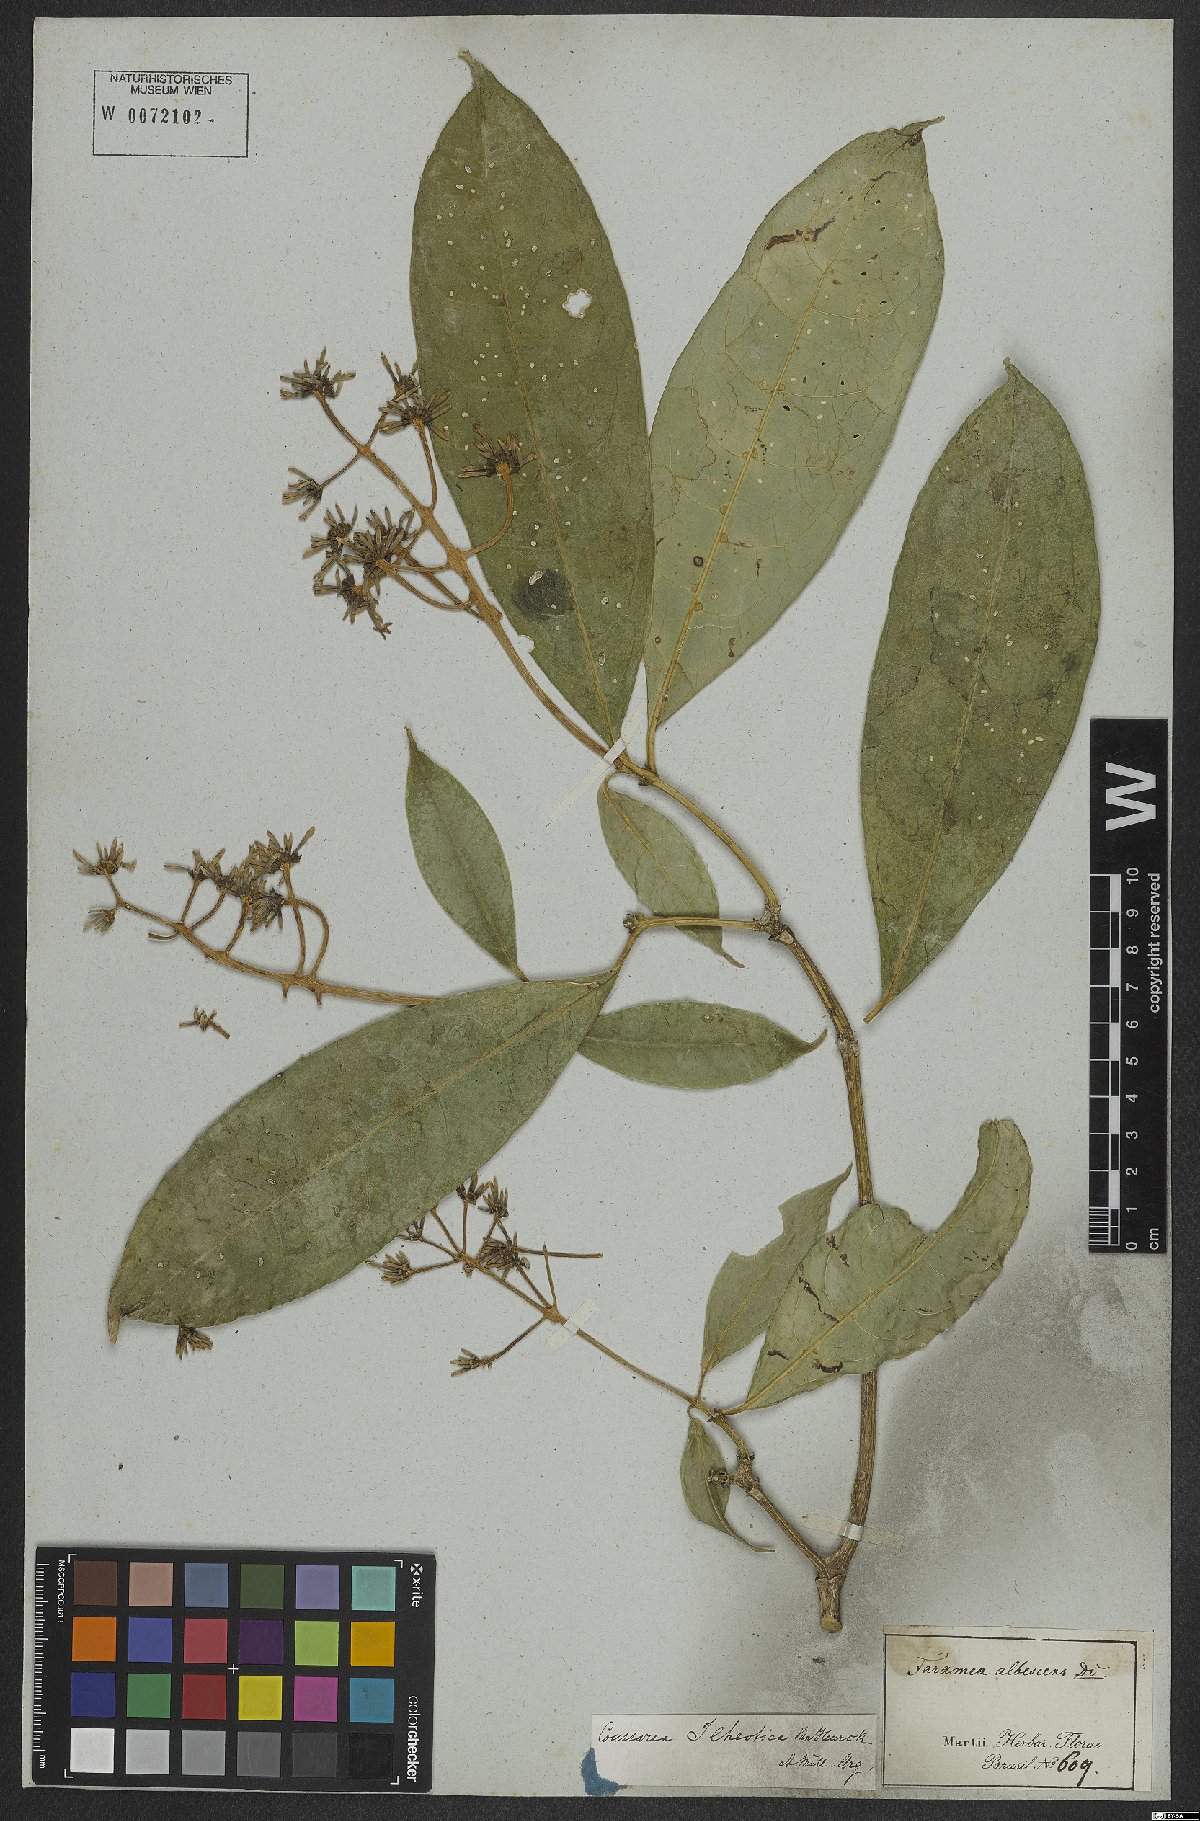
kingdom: Plantae
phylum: Tracheophyta
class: Magnoliopsida
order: Gentianales
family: Rubiaceae
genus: Coussarea
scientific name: Coussarea ilheotica
